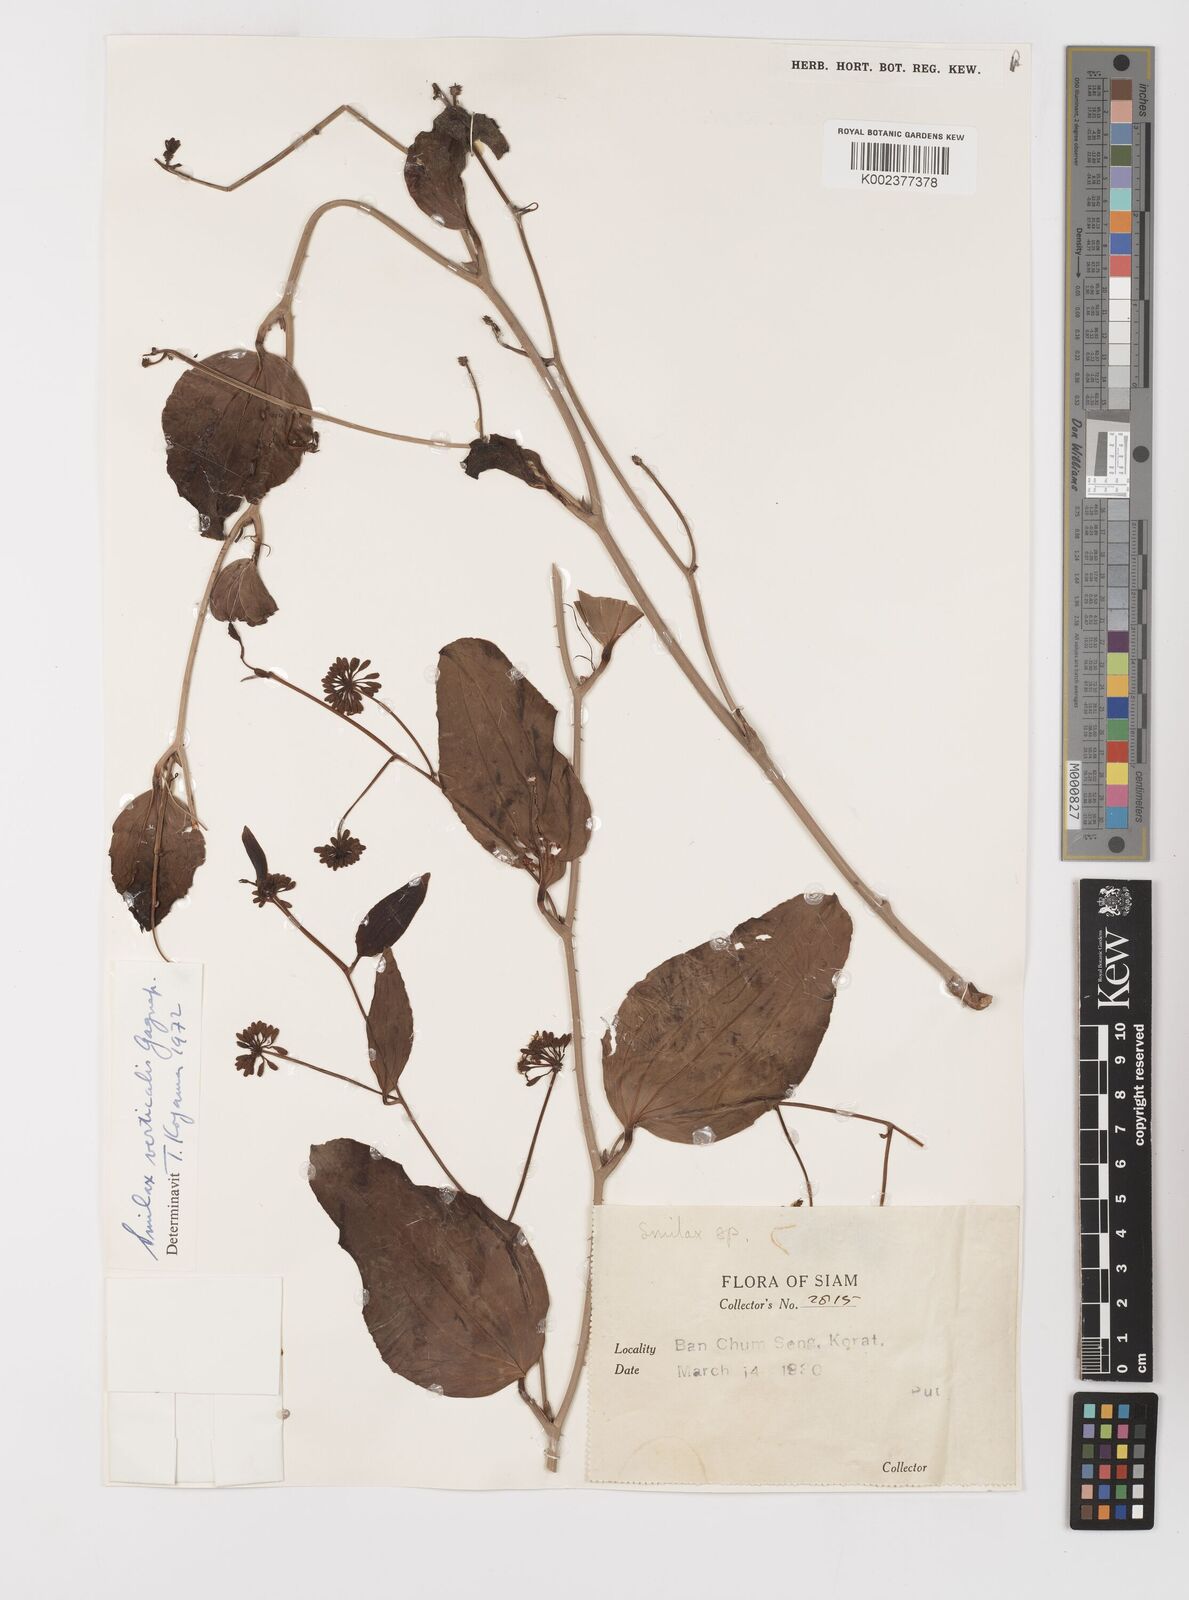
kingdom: Plantae
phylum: Tracheophyta
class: Liliopsida
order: Liliales
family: Smilacaceae
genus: Smilax
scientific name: Smilax verticalis
